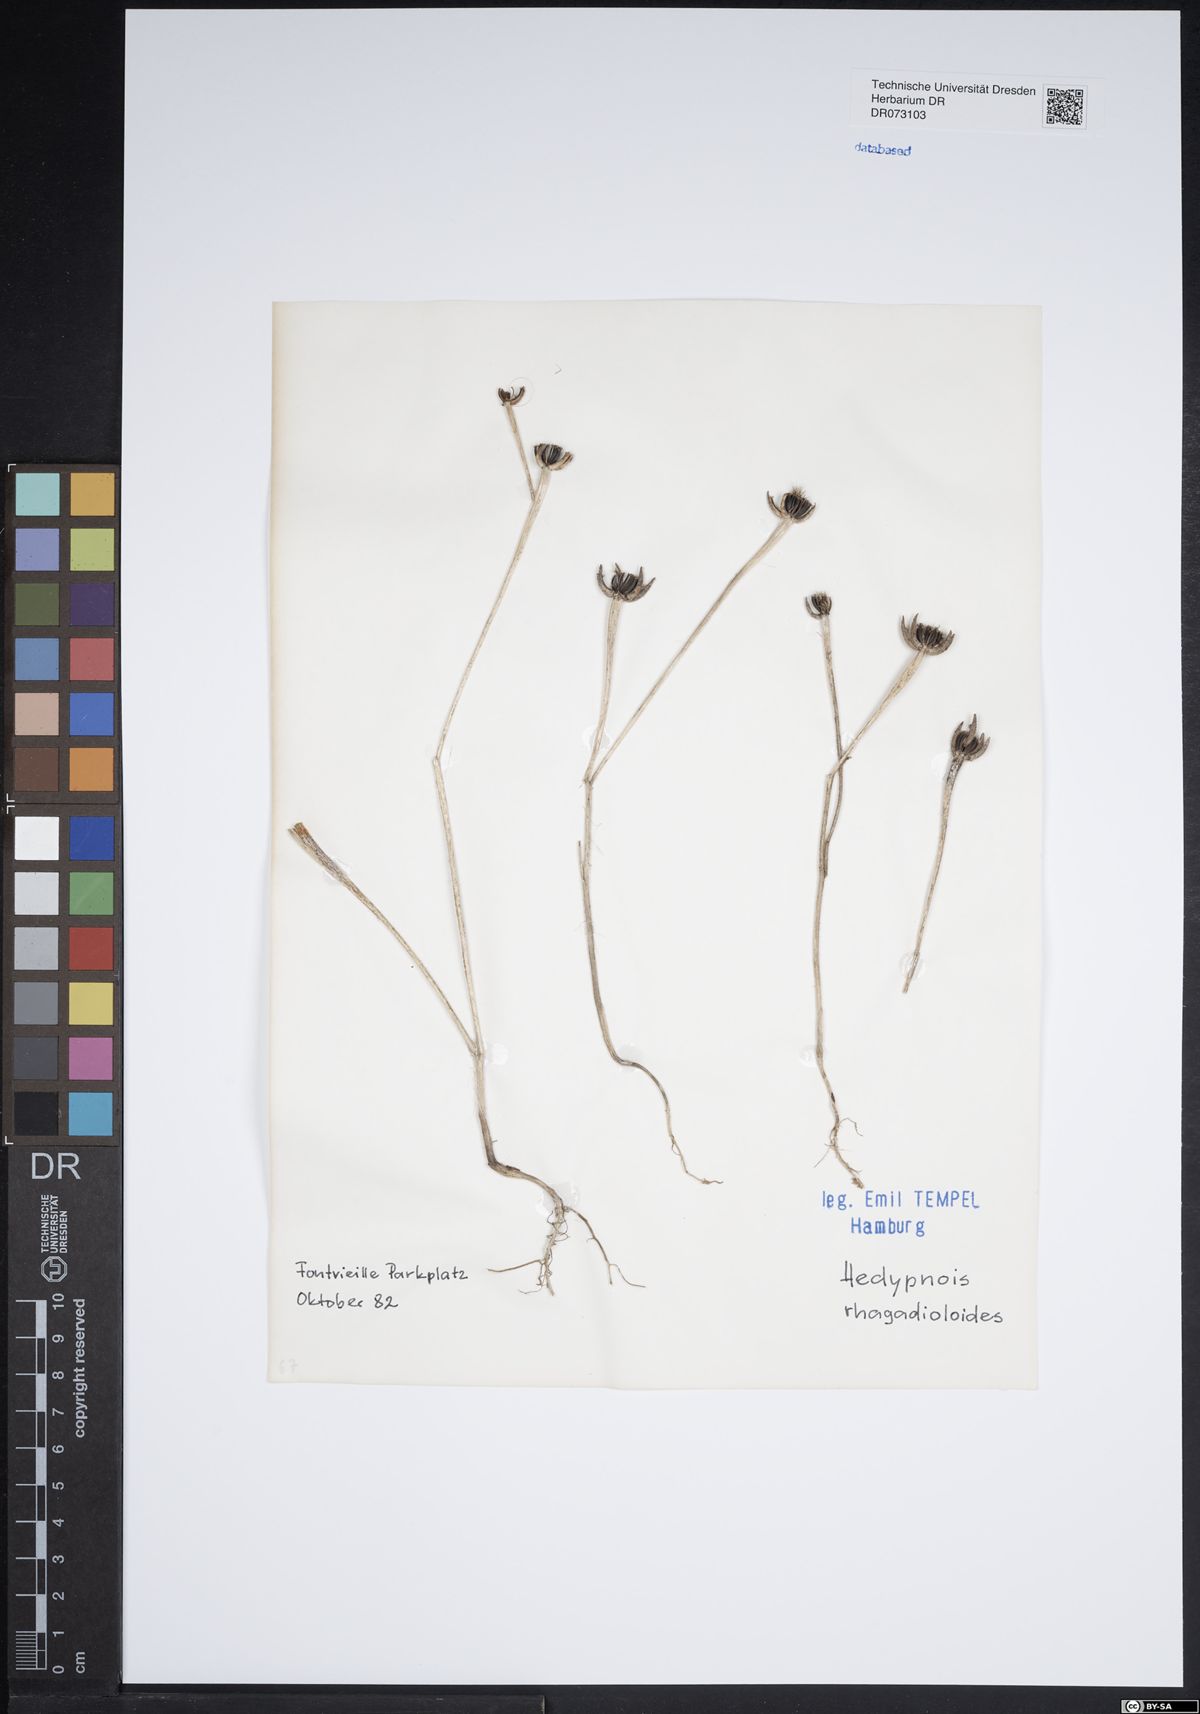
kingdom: Plantae
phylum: Tracheophyta
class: Magnoliopsida
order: Asterales
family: Asteraceae
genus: Hedypnois
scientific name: Hedypnois rhagadioloides
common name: Cretan weed
